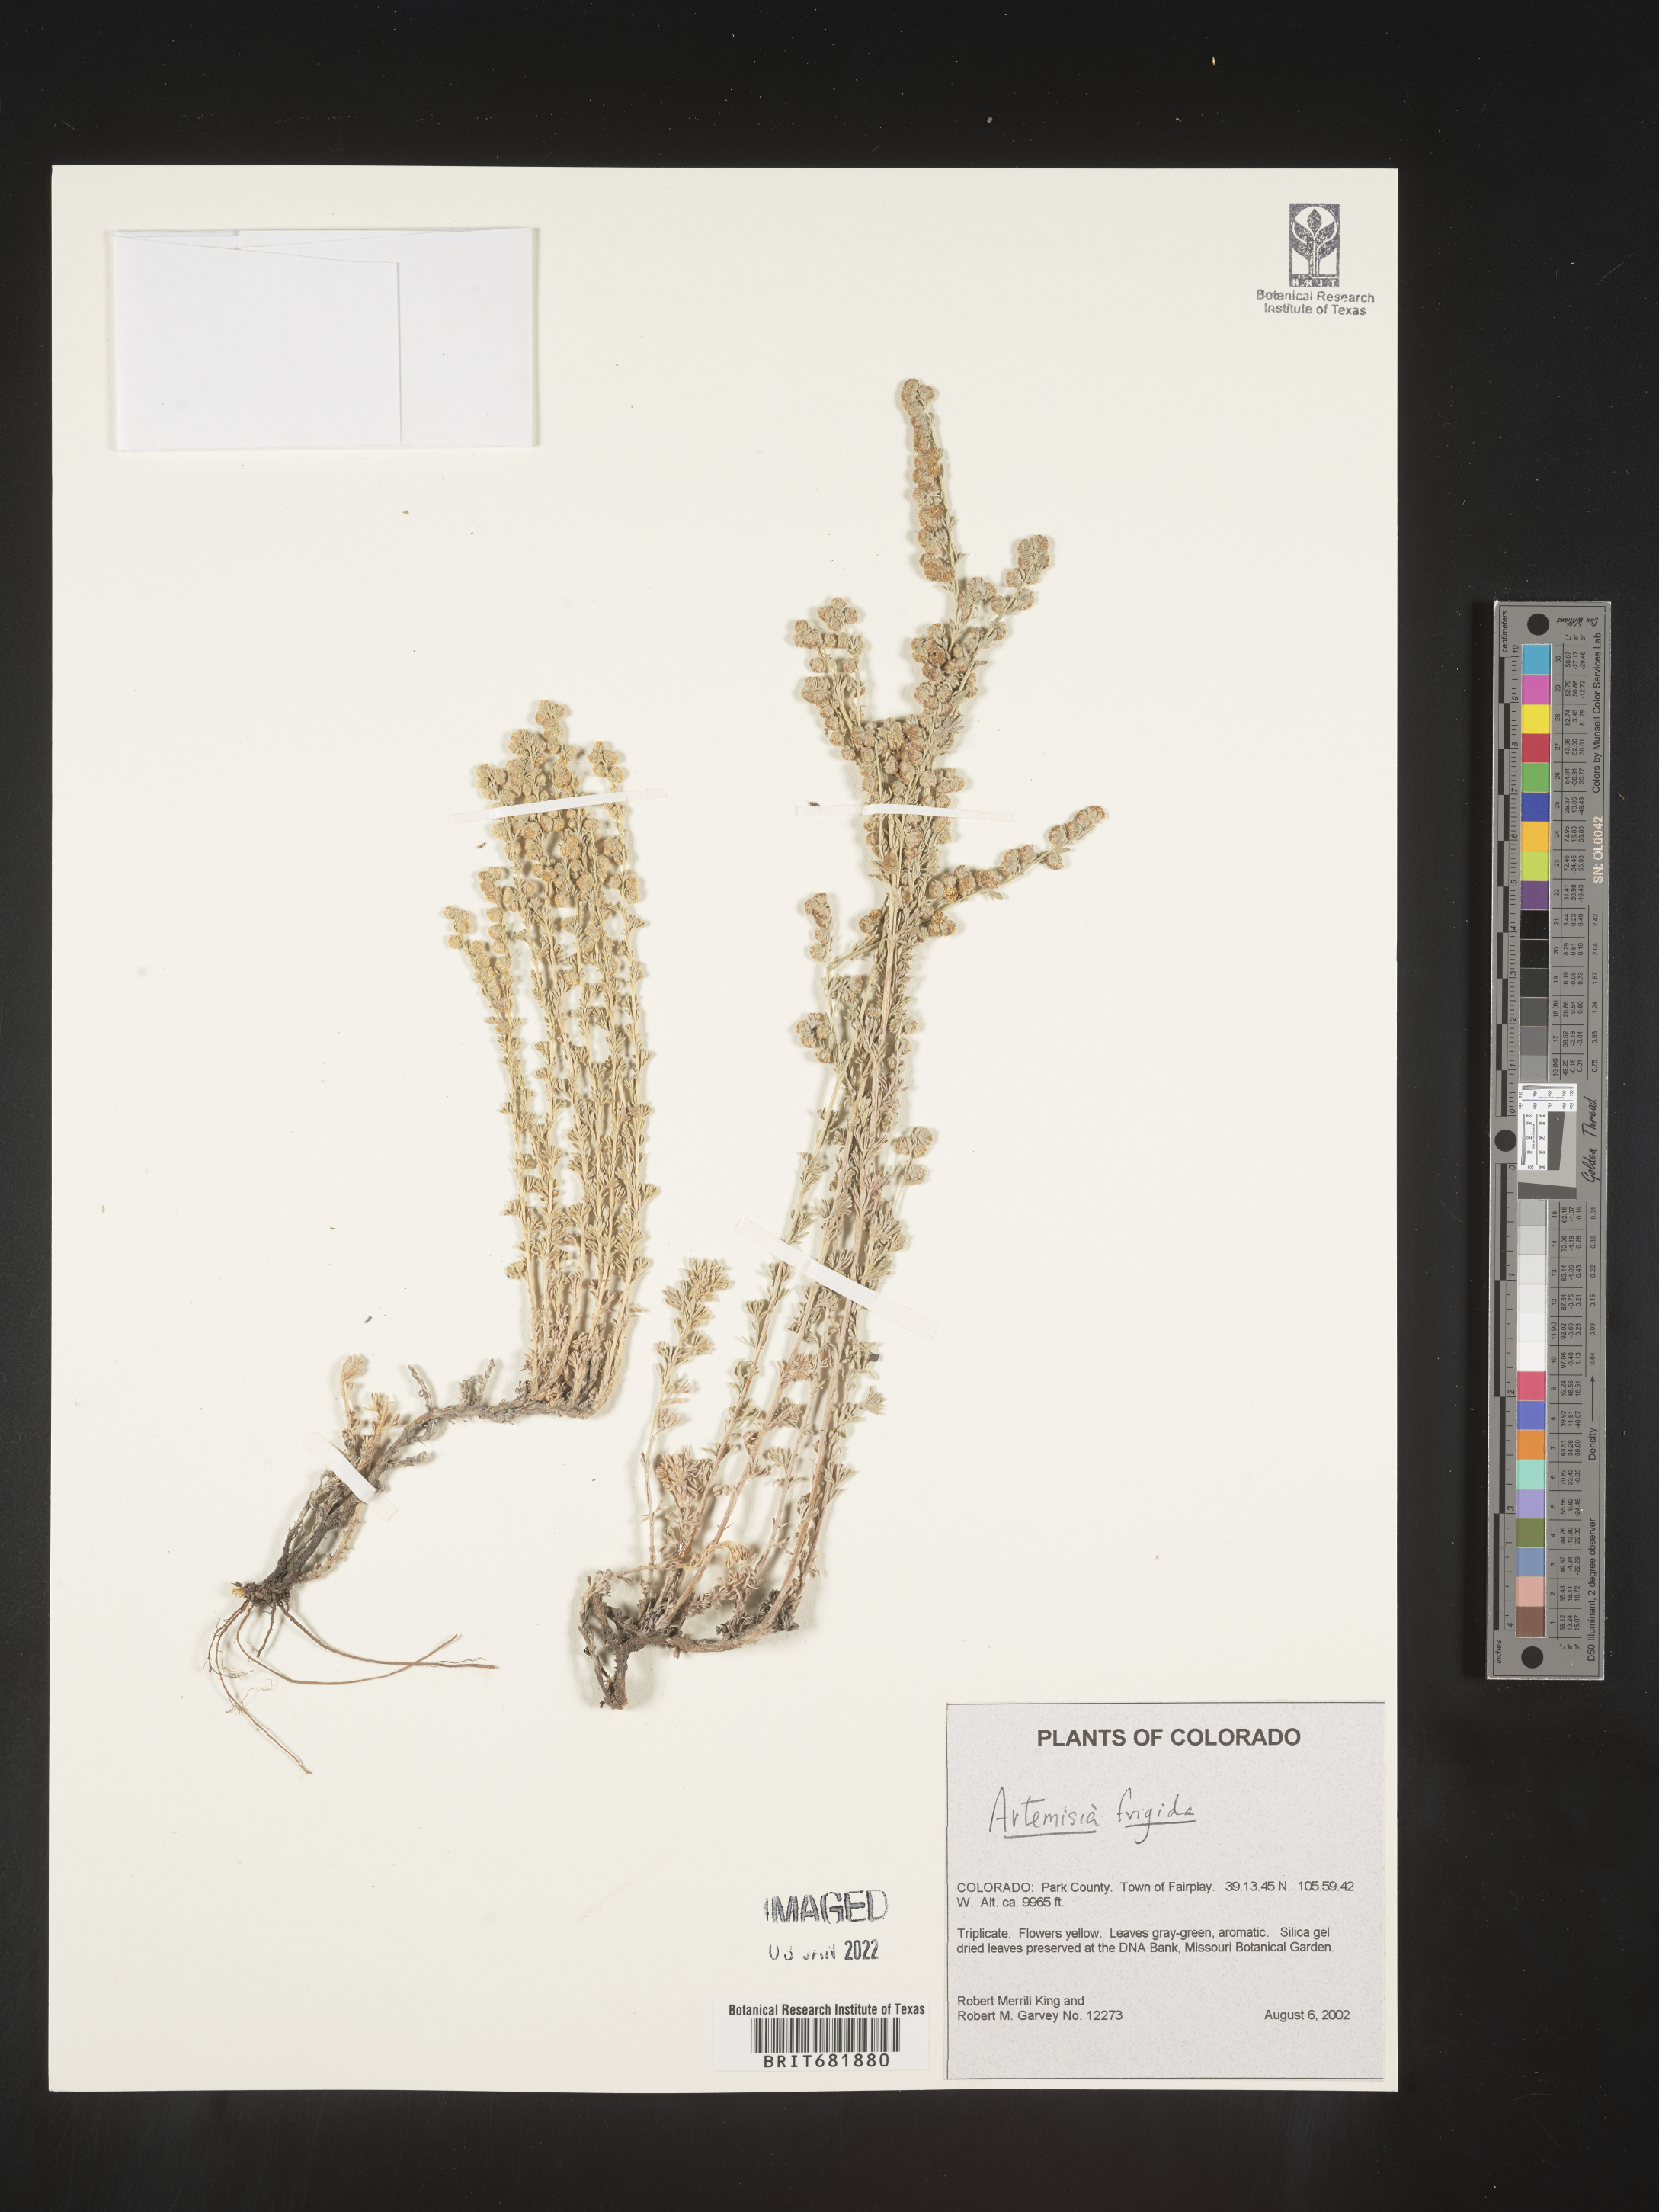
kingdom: Plantae
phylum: Tracheophyta
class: Magnoliopsida
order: Asterales
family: Asteraceae
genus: Artemisia
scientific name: Artemisia frigida
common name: Prairie sagewort
